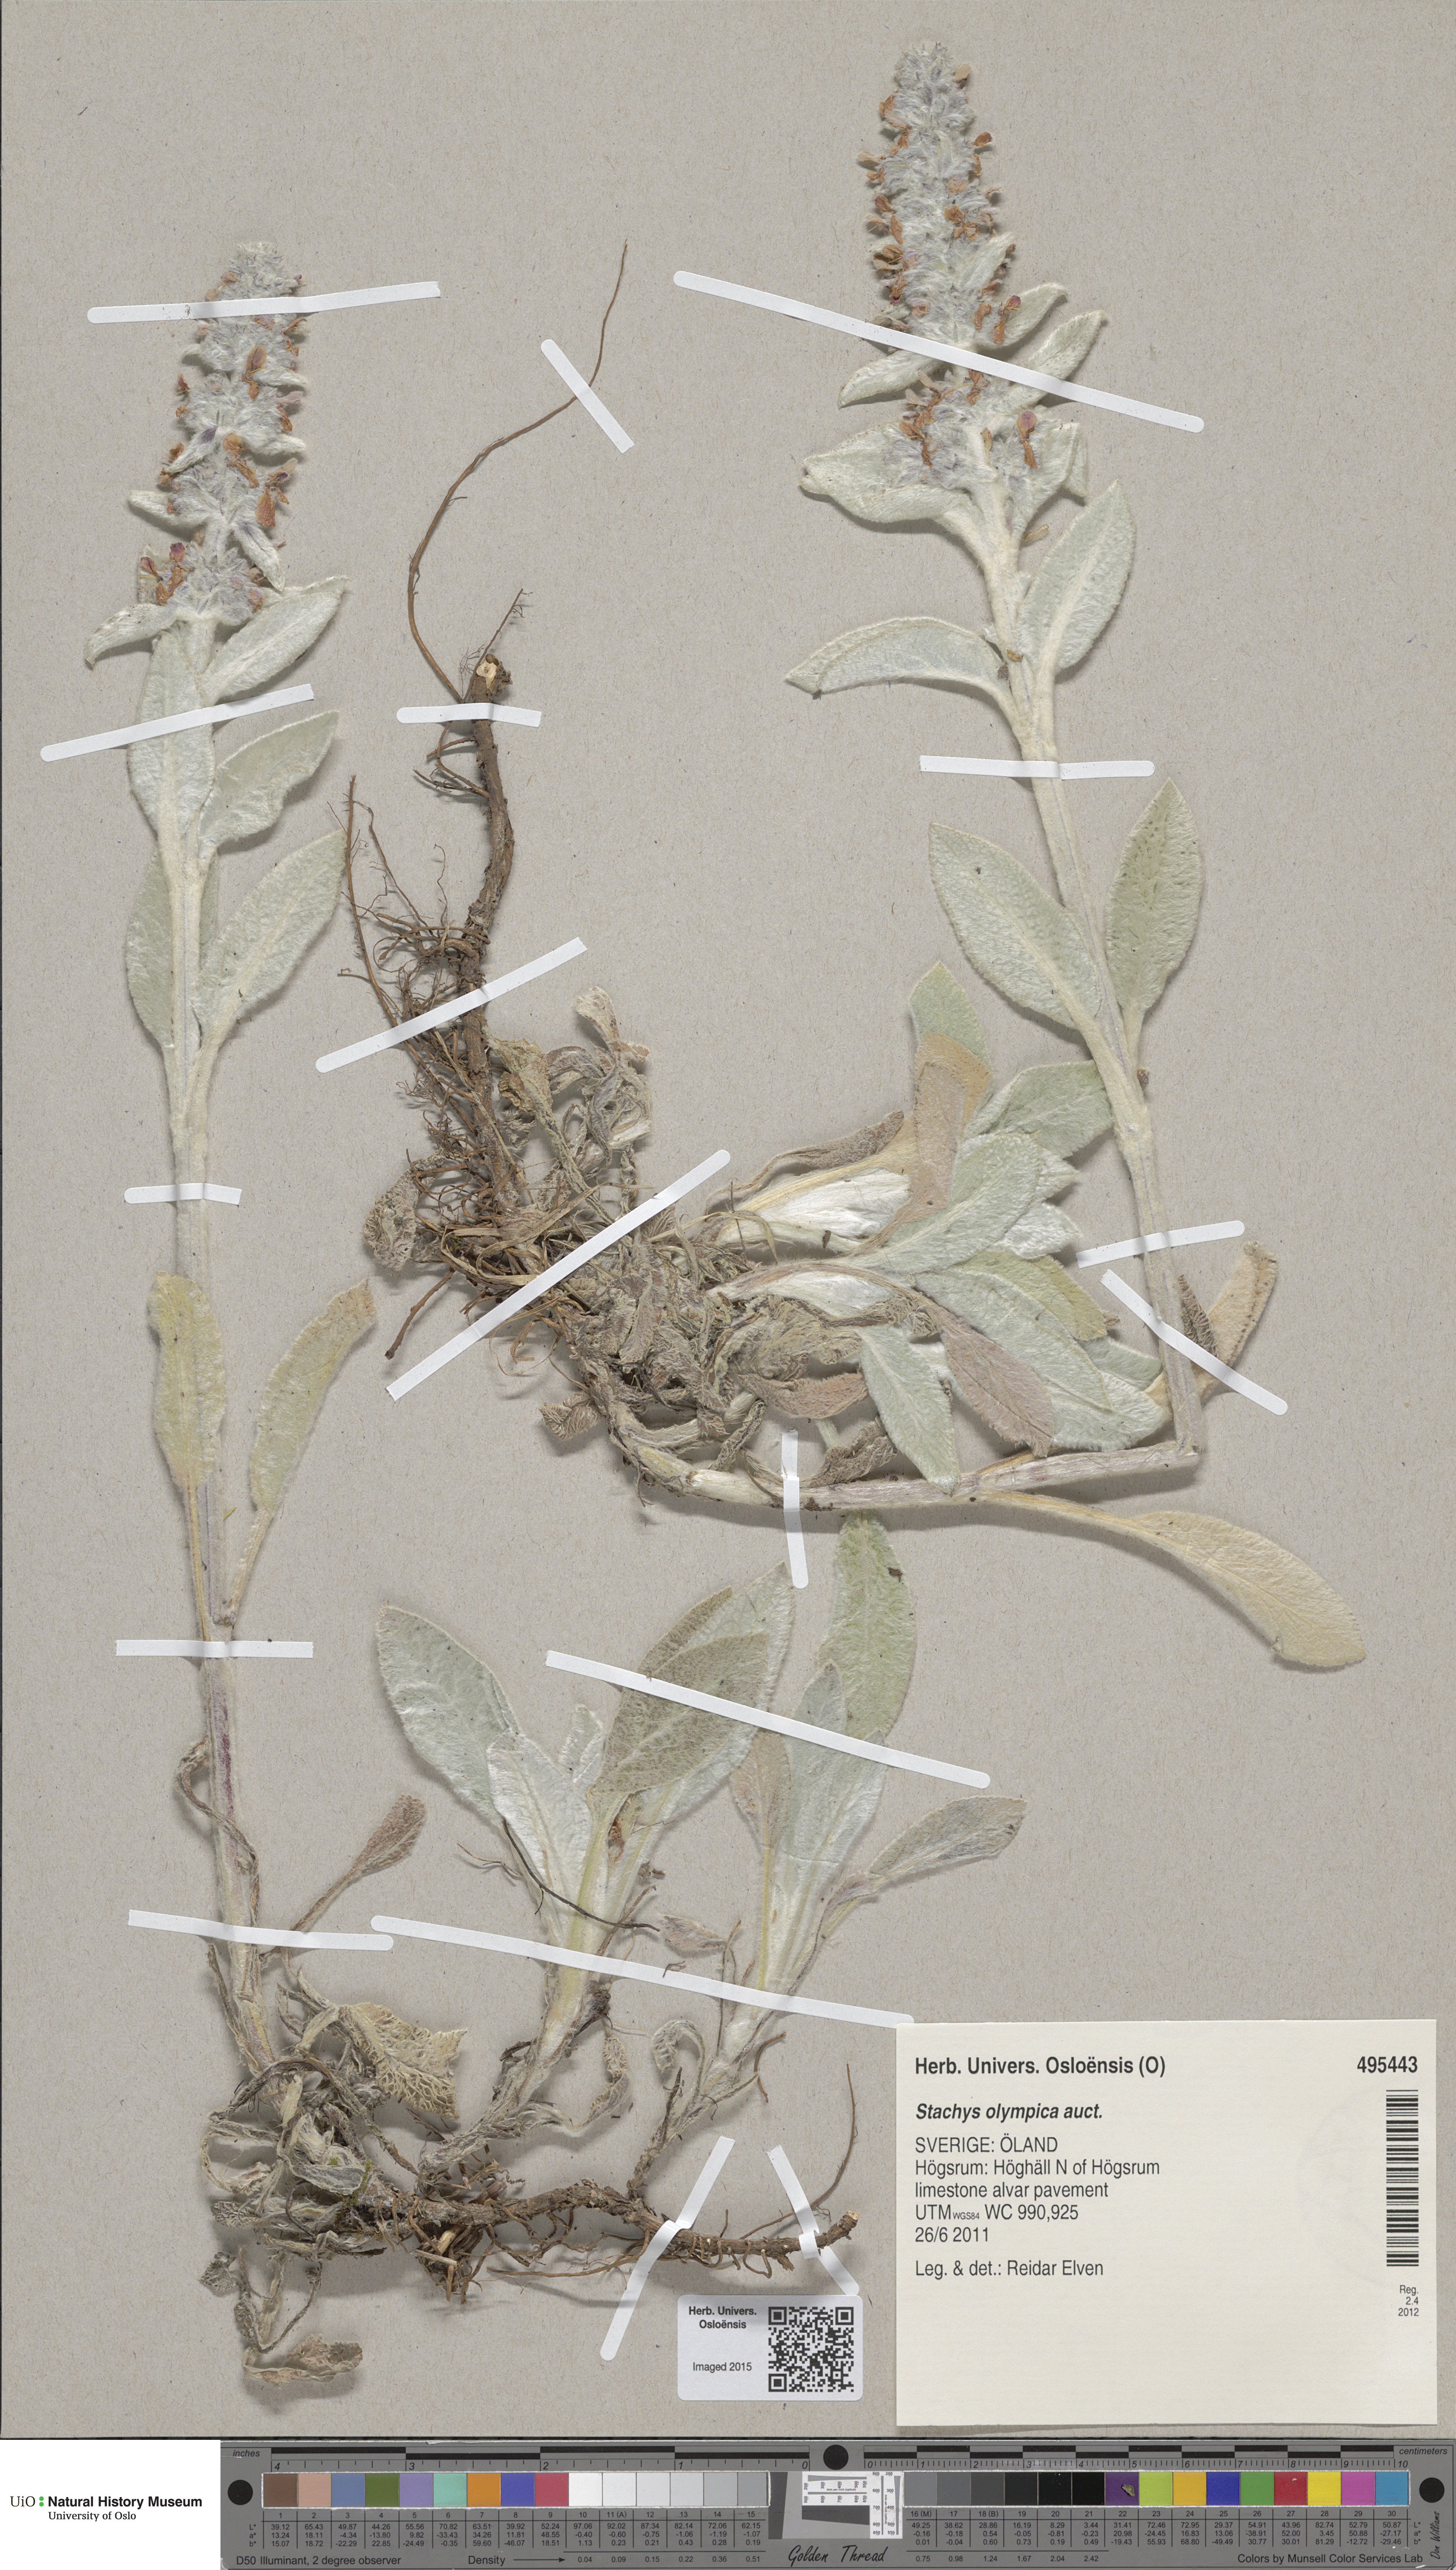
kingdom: Plantae
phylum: Tracheophyta
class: Magnoliopsida
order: Lamiales
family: Lamiaceae
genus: Stachys
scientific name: Stachys byzantina
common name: Lamb's-ear
